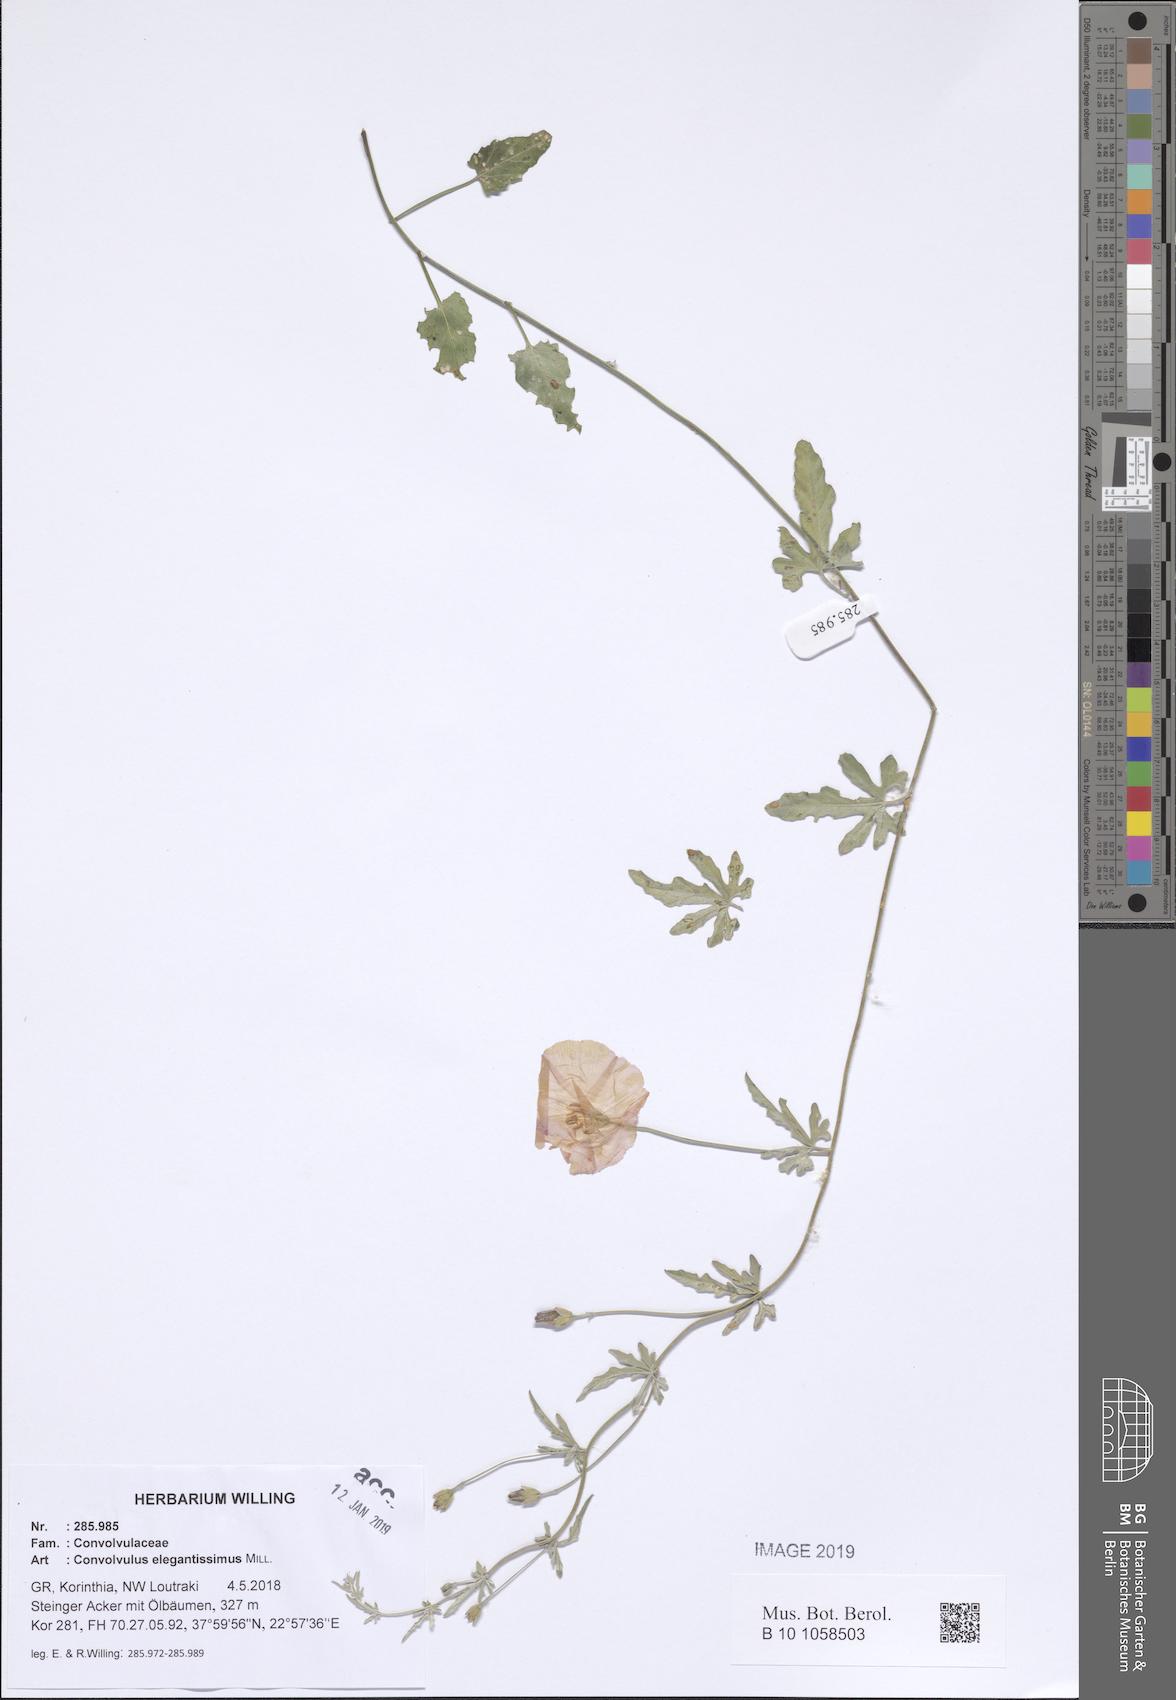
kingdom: Plantae
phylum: Tracheophyta
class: Magnoliopsida
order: Solanales
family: Convolvulaceae
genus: Convolvulus
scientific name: Convolvulus elegantissimus
